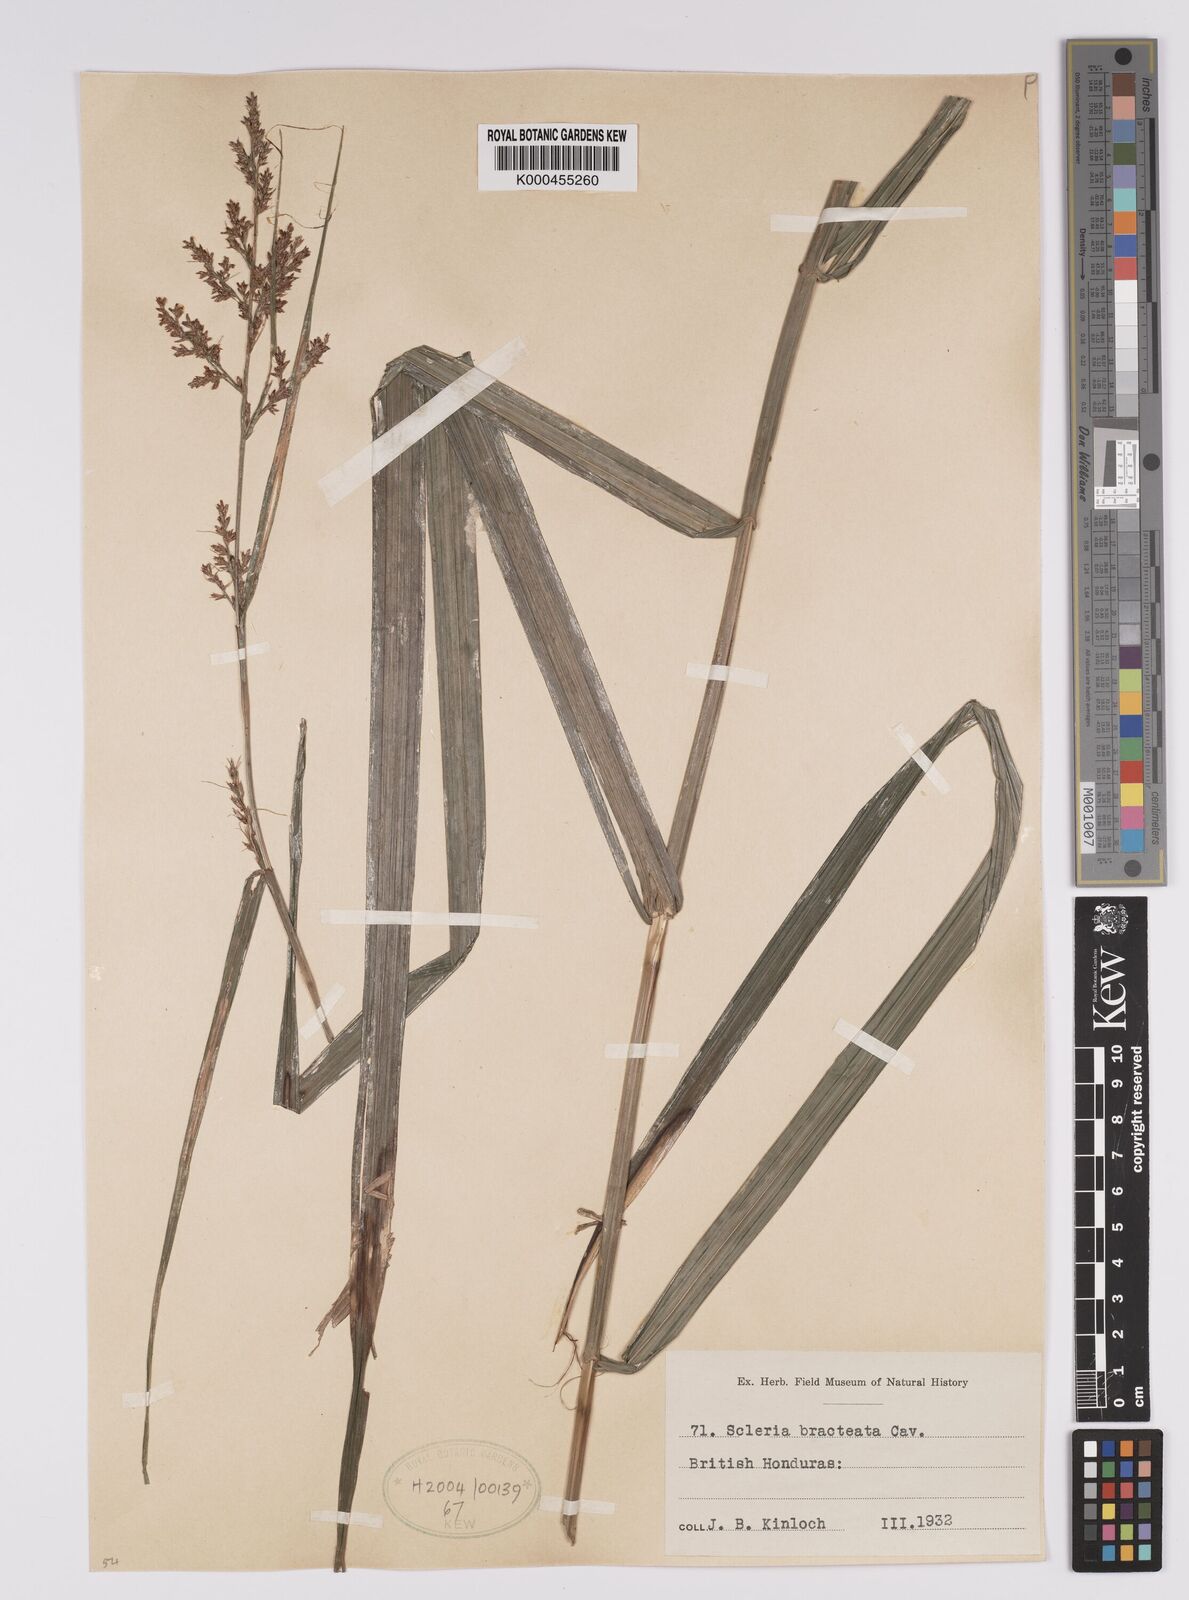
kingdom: Plantae
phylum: Tracheophyta
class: Liliopsida
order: Poales
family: Cyperaceae
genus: Scleria
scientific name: Scleria bracteata
